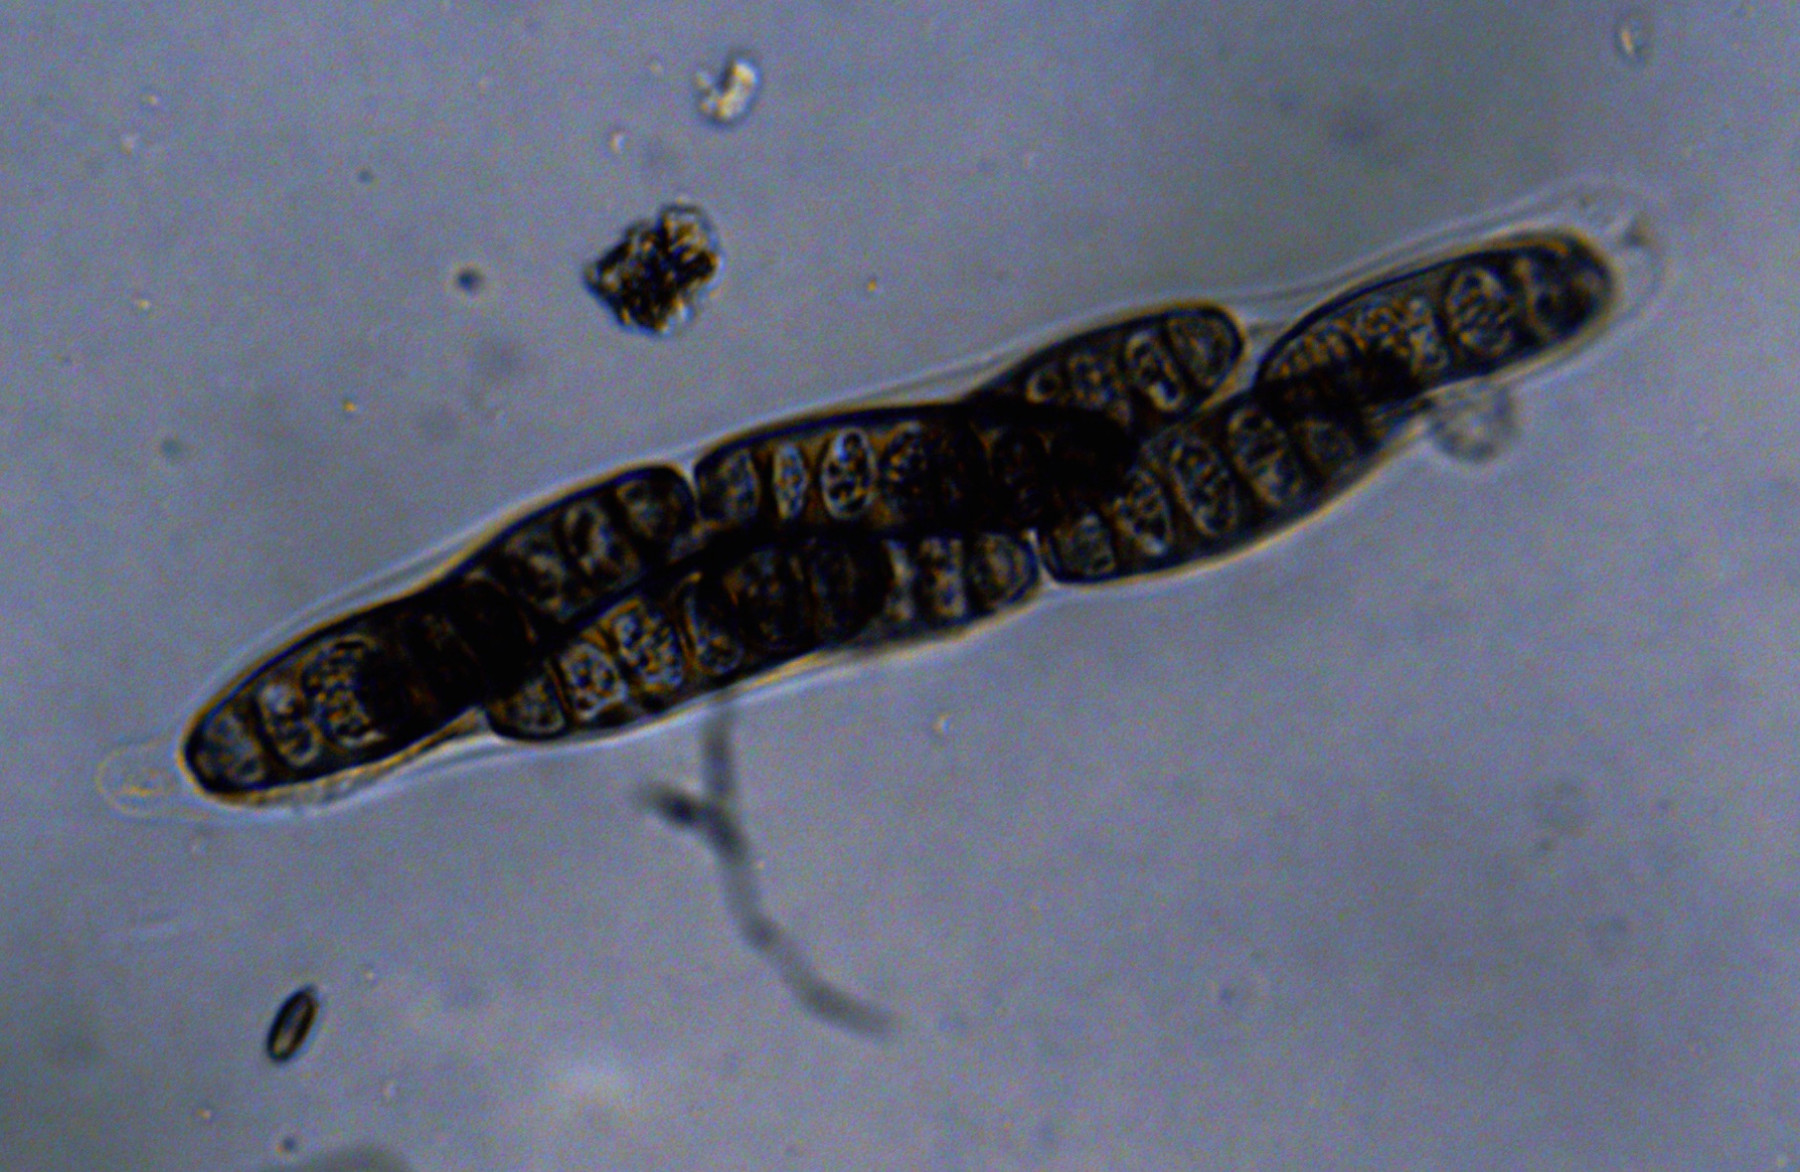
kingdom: Fungi
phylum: Ascomycota
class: Sordariomycetes
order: Diaporthales
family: Coryneaceae
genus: Coryneum
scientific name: Coryneum lanciforme
